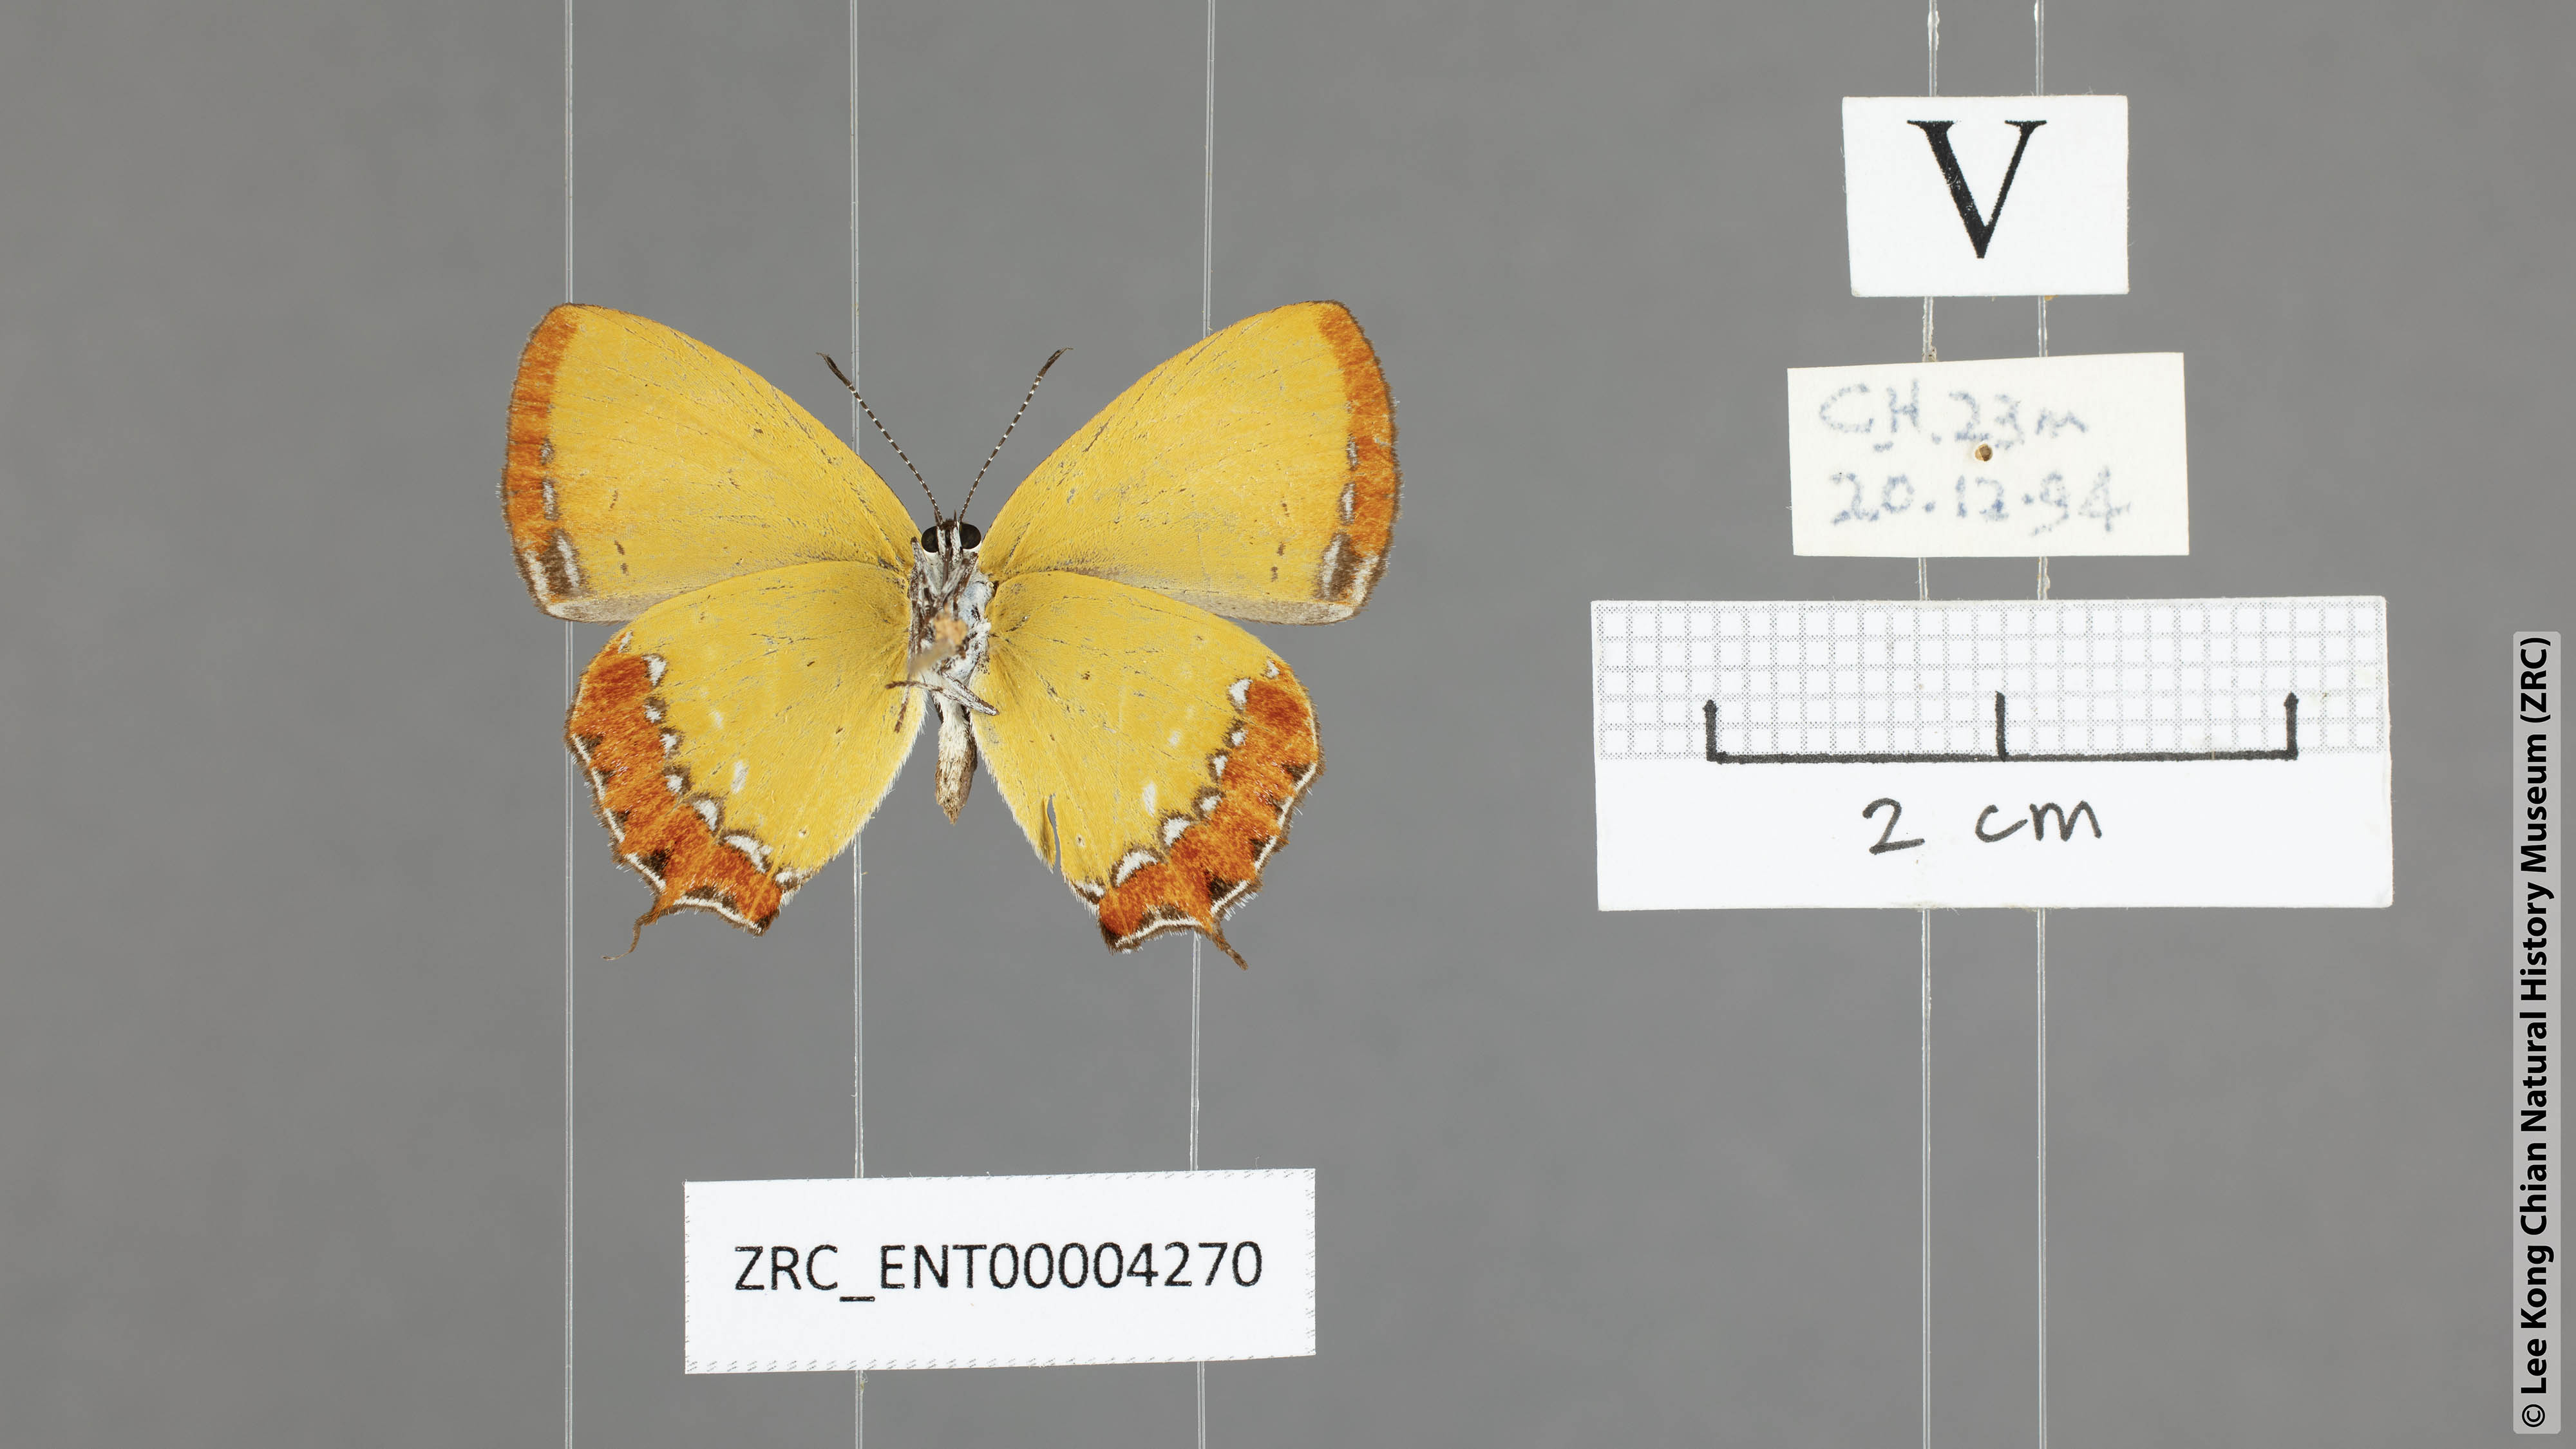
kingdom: Animalia
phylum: Arthropoda
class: Insecta
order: Lepidoptera
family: Lycaenidae
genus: Heliophorus
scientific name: Heliophorus epicles
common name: Purple sapphire
